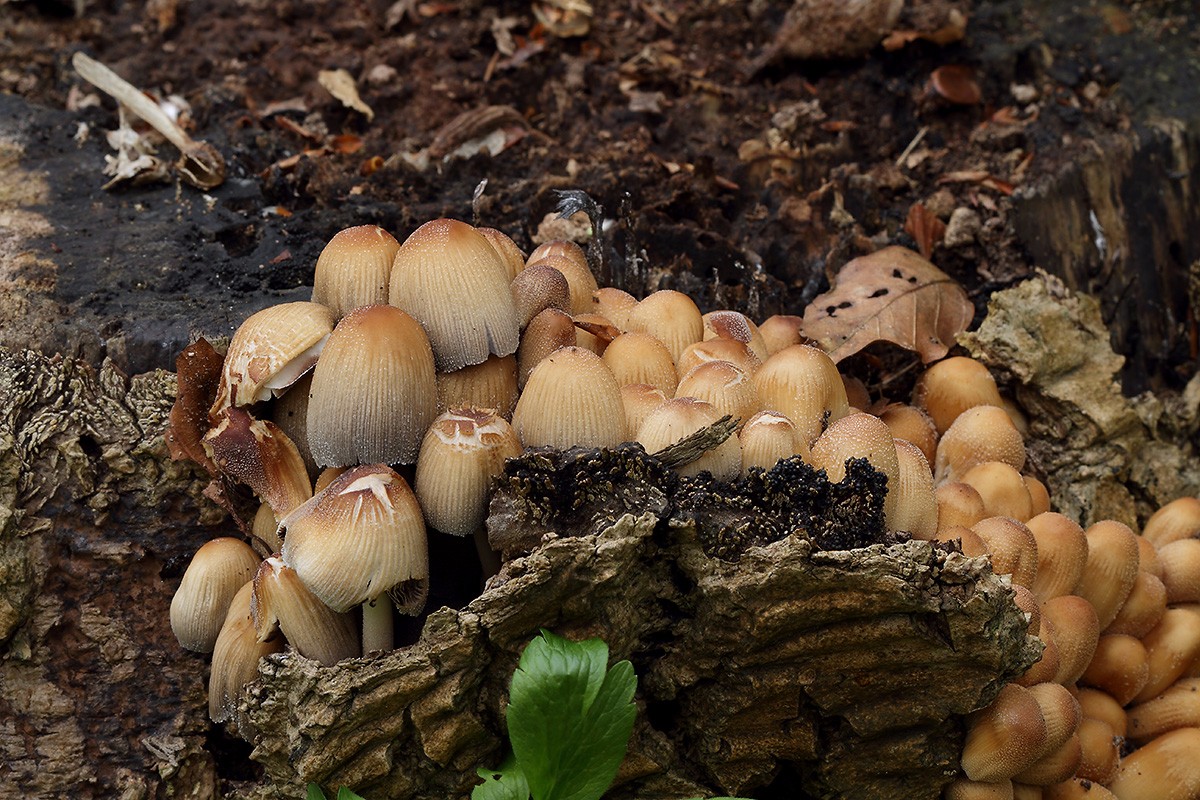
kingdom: Fungi
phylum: Basidiomycota
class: Agaricomycetes
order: Agaricales
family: Psathyrellaceae
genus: Coprinellus
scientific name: Coprinellus micaceus
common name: glimmer-blækhat
